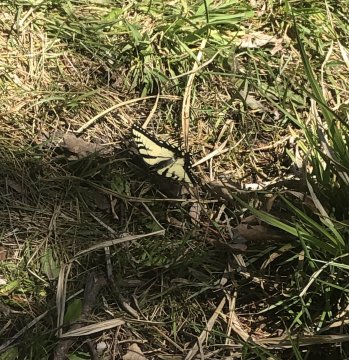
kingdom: Animalia
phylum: Arthropoda
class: Insecta
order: Lepidoptera
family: Papilionidae
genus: Pterourus
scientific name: Pterourus canadensis
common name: Canadian Tiger Swallowtail
